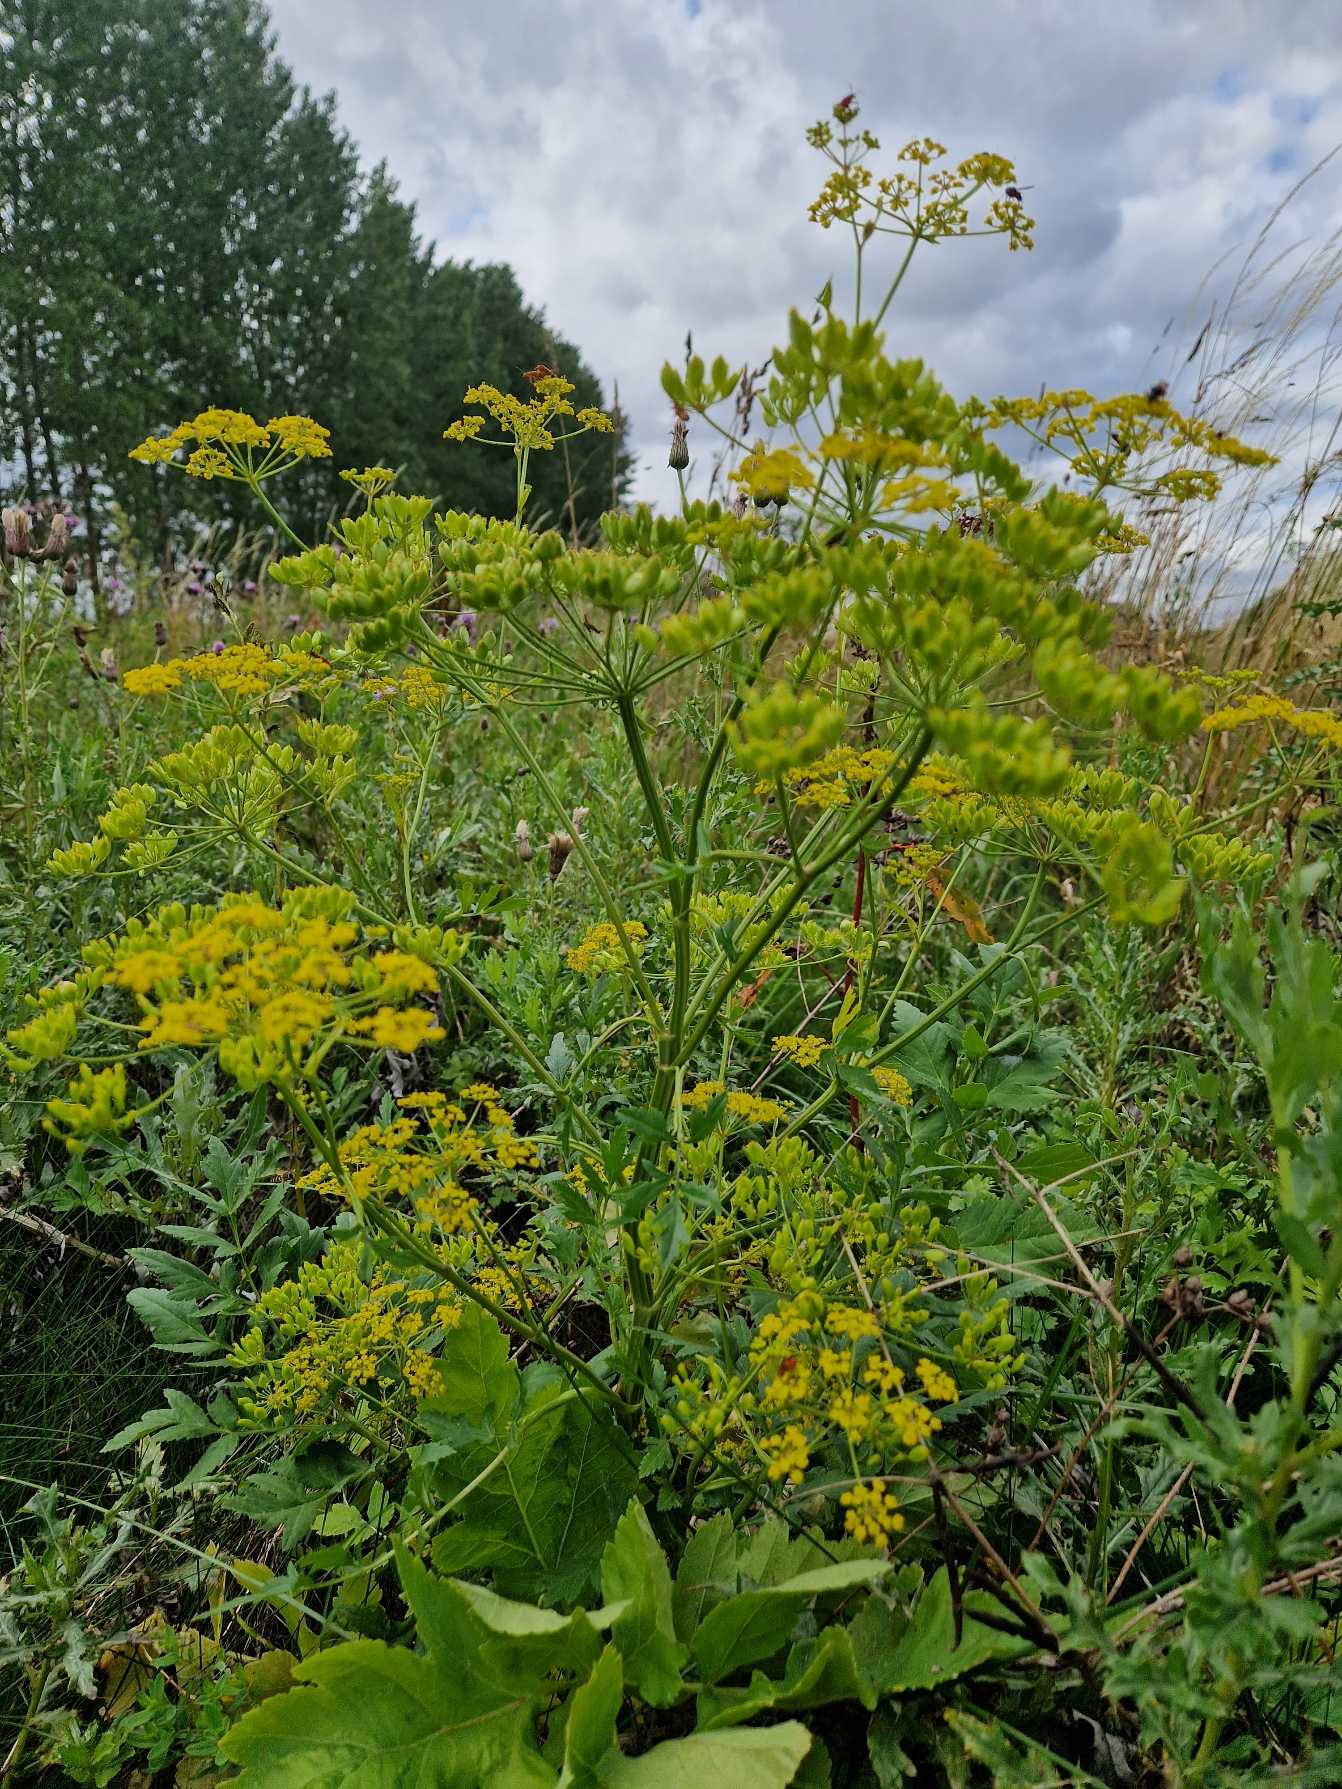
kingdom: Plantae
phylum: Tracheophyta
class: Magnoliopsida
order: Apiales
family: Apiaceae
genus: Pastinaca
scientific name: Pastinaca sativa
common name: Pastinak
